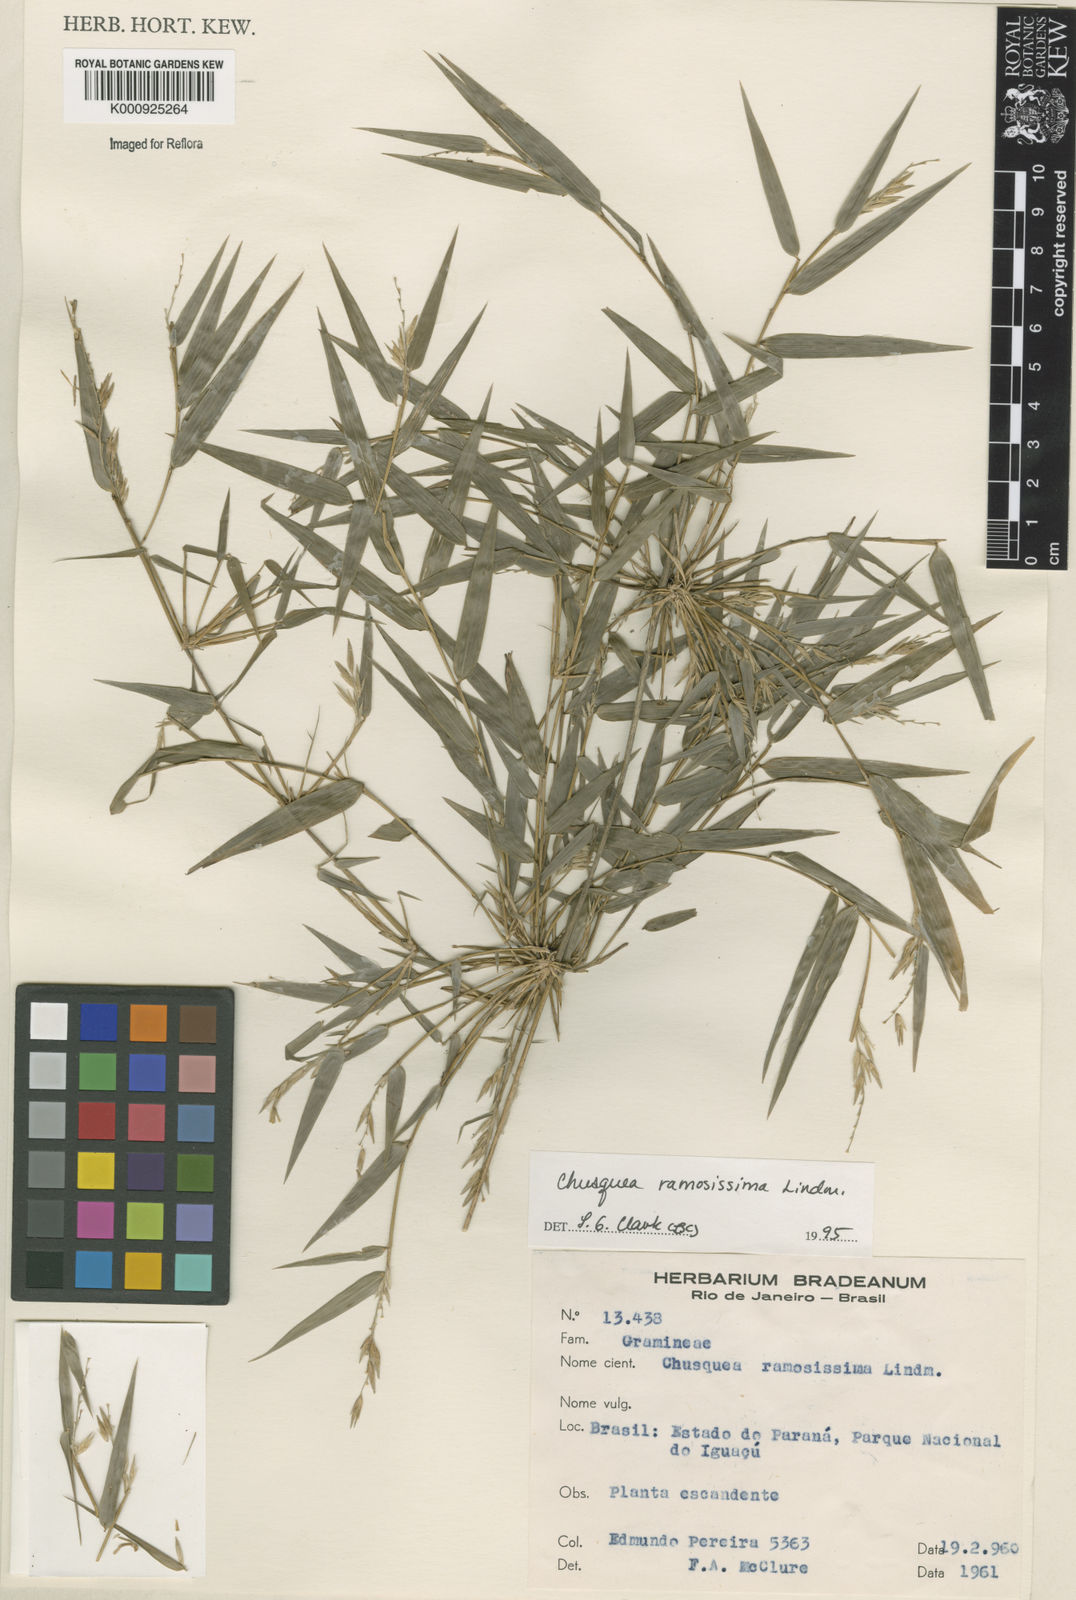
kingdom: Plantae
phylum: Tracheophyta
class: Liliopsida
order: Poales
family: Poaceae
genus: Chusquea
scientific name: Chusquea ramosissima
